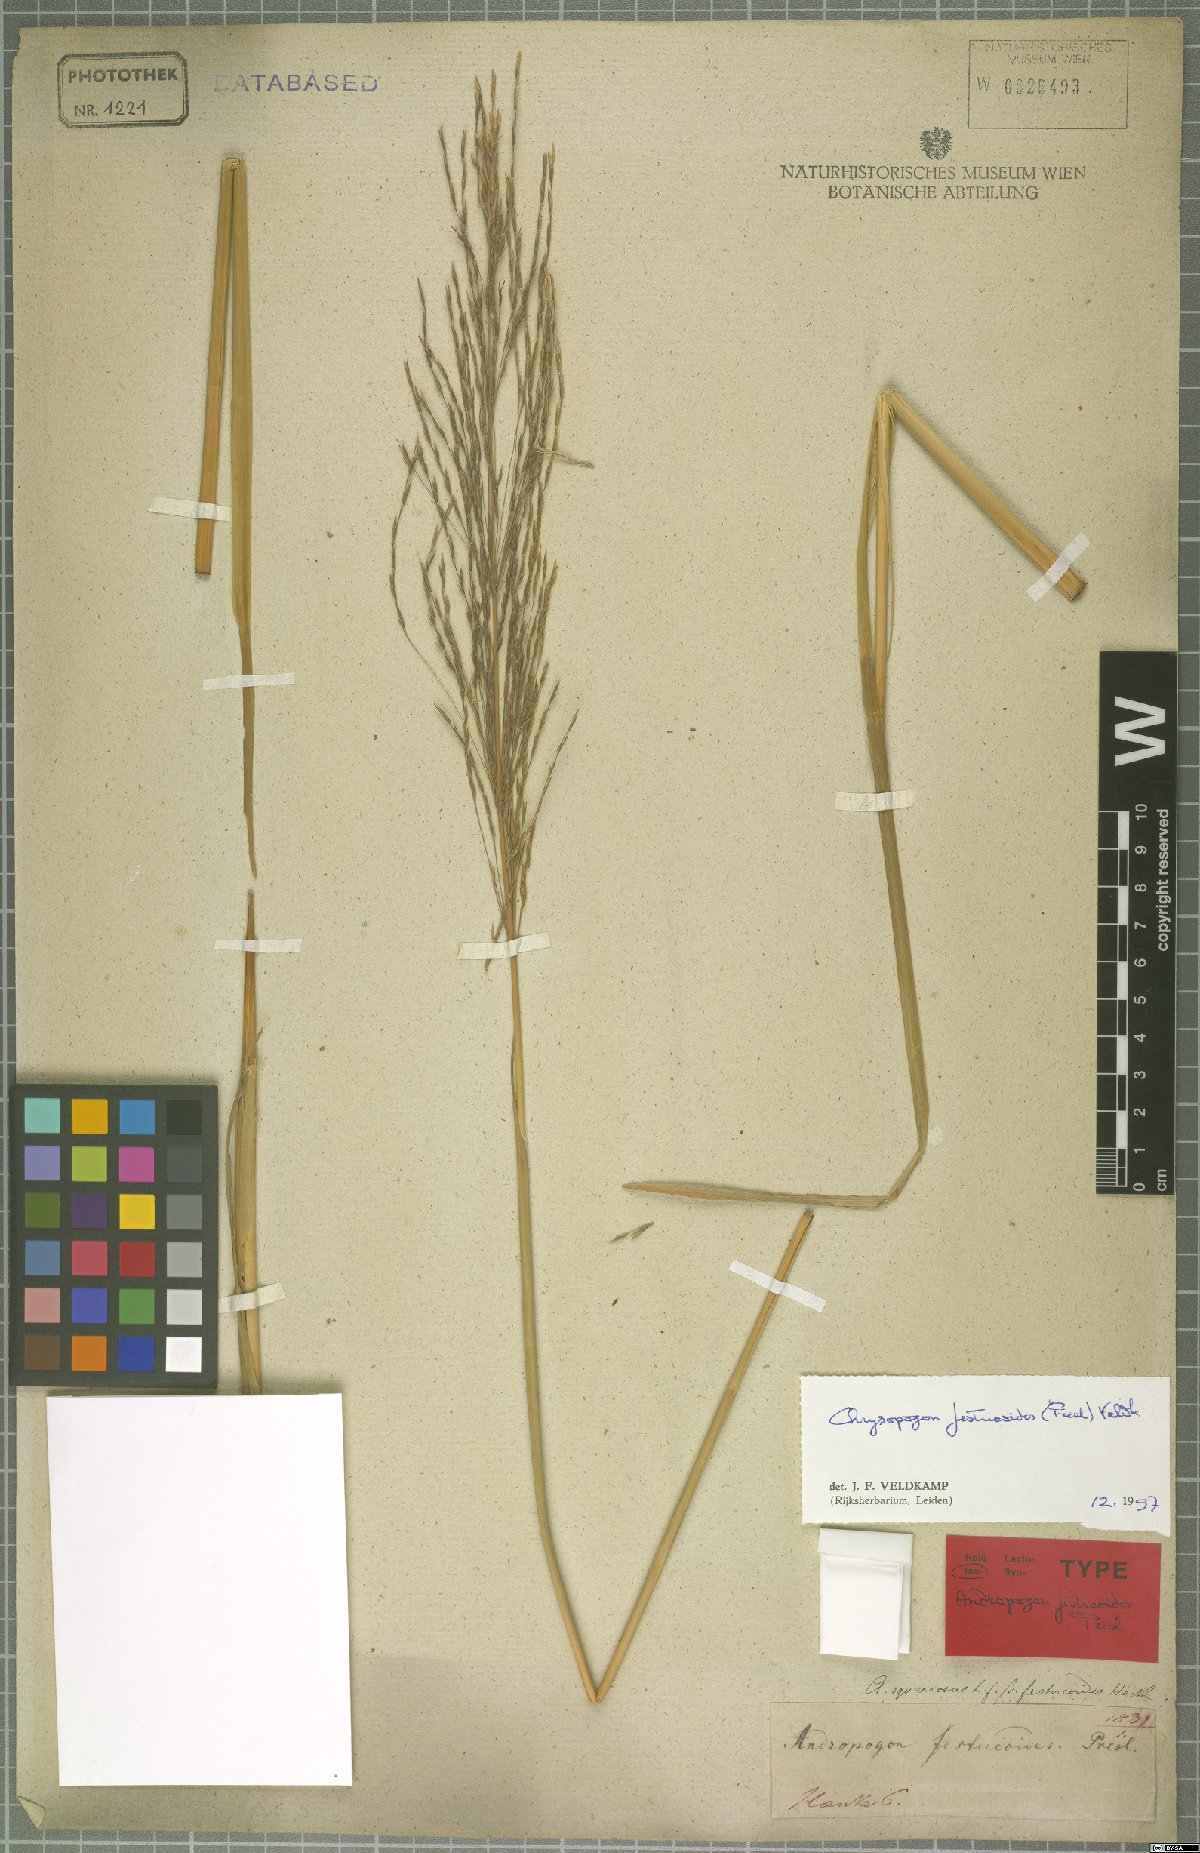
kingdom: Plantae
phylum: Tracheophyta
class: Liliopsida
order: Poales
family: Poaceae
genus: Chrysopogon
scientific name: Chrysopogon festucoides
